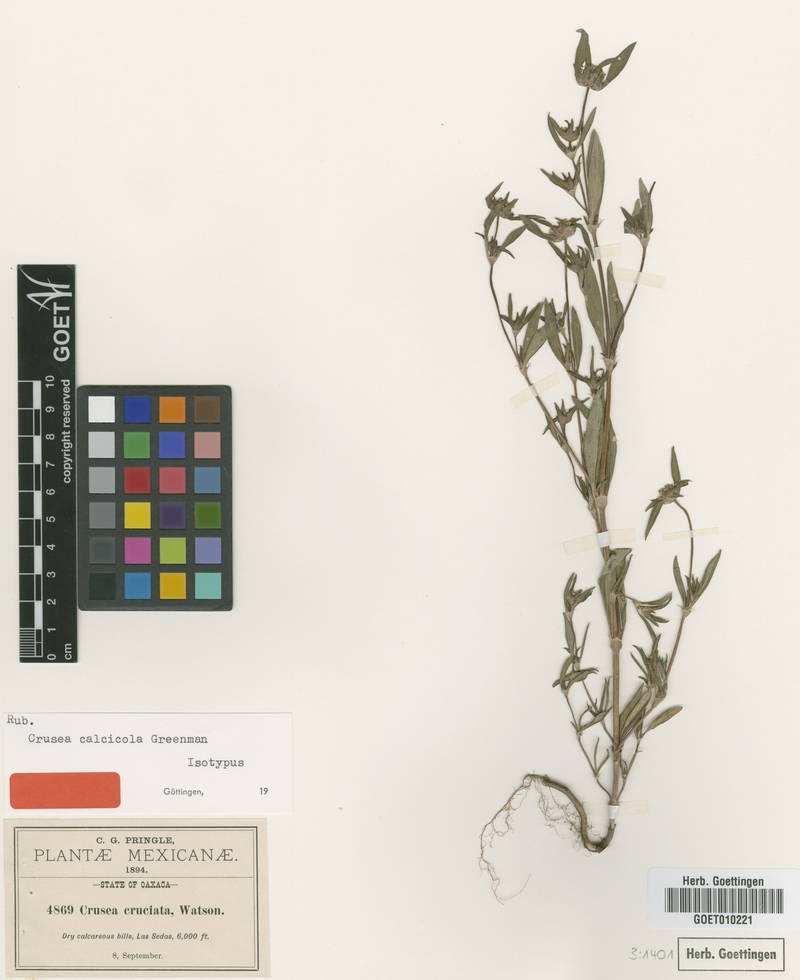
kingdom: Plantae
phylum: Tracheophyta
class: Magnoliopsida
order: Gentianales
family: Rubiaceae
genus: Crusea
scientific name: Crusea calcicola
